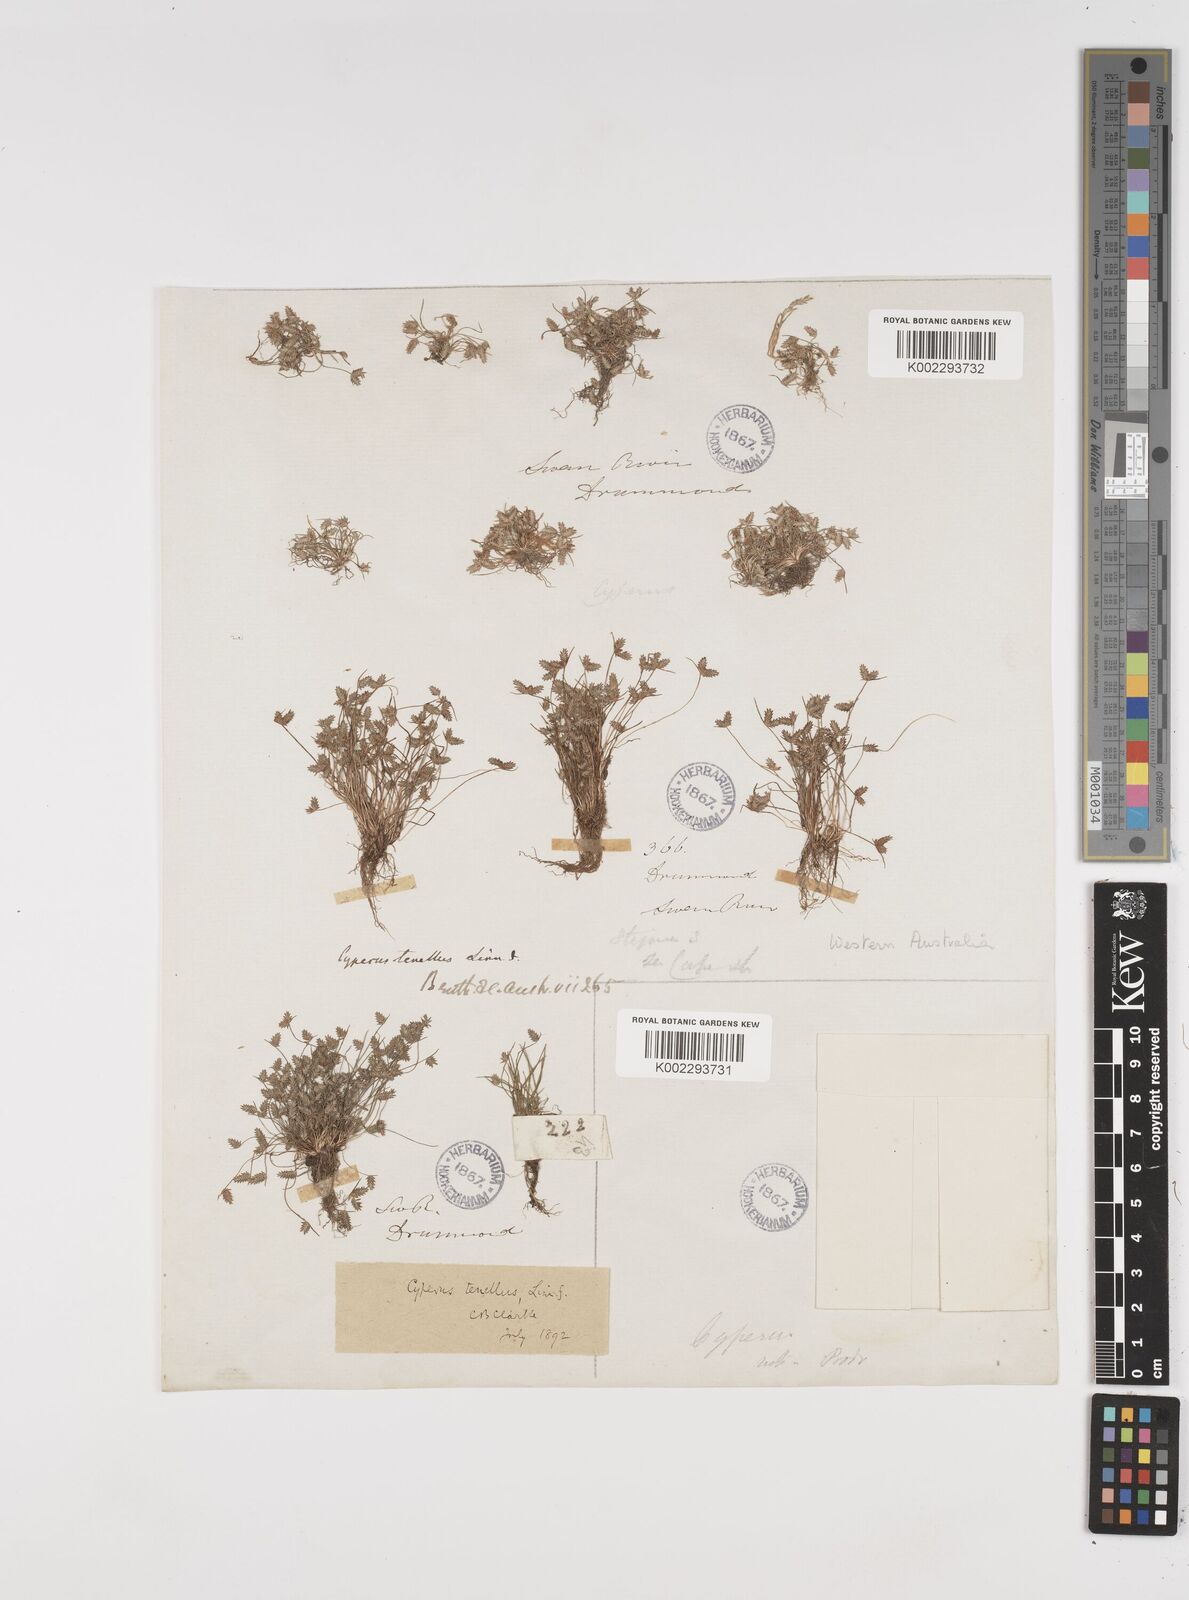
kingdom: Plantae
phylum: Tracheophyta
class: Liliopsida
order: Poales
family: Cyperaceae
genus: Isolepis
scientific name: Isolepis levynsiana
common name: Sedge
